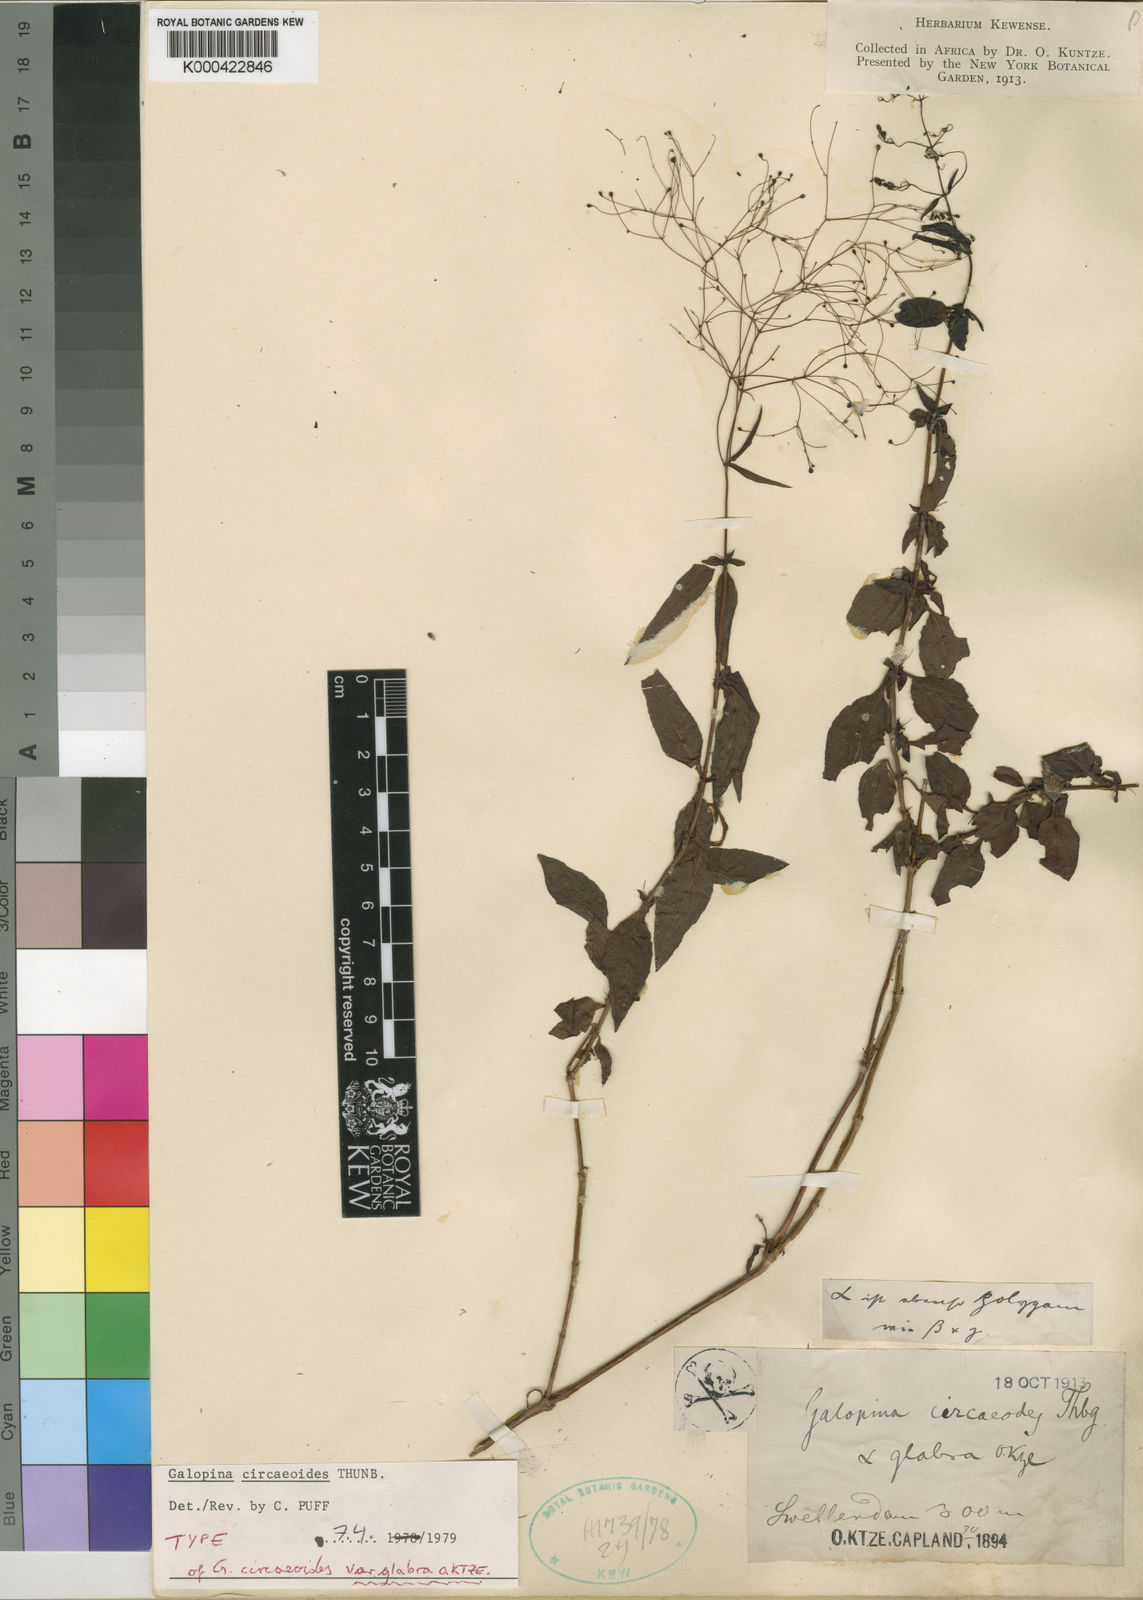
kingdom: Plantae
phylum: Tracheophyta
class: Magnoliopsida
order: Gentianales
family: Rubiaceae
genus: Galopina
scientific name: Galopina circaeoides
